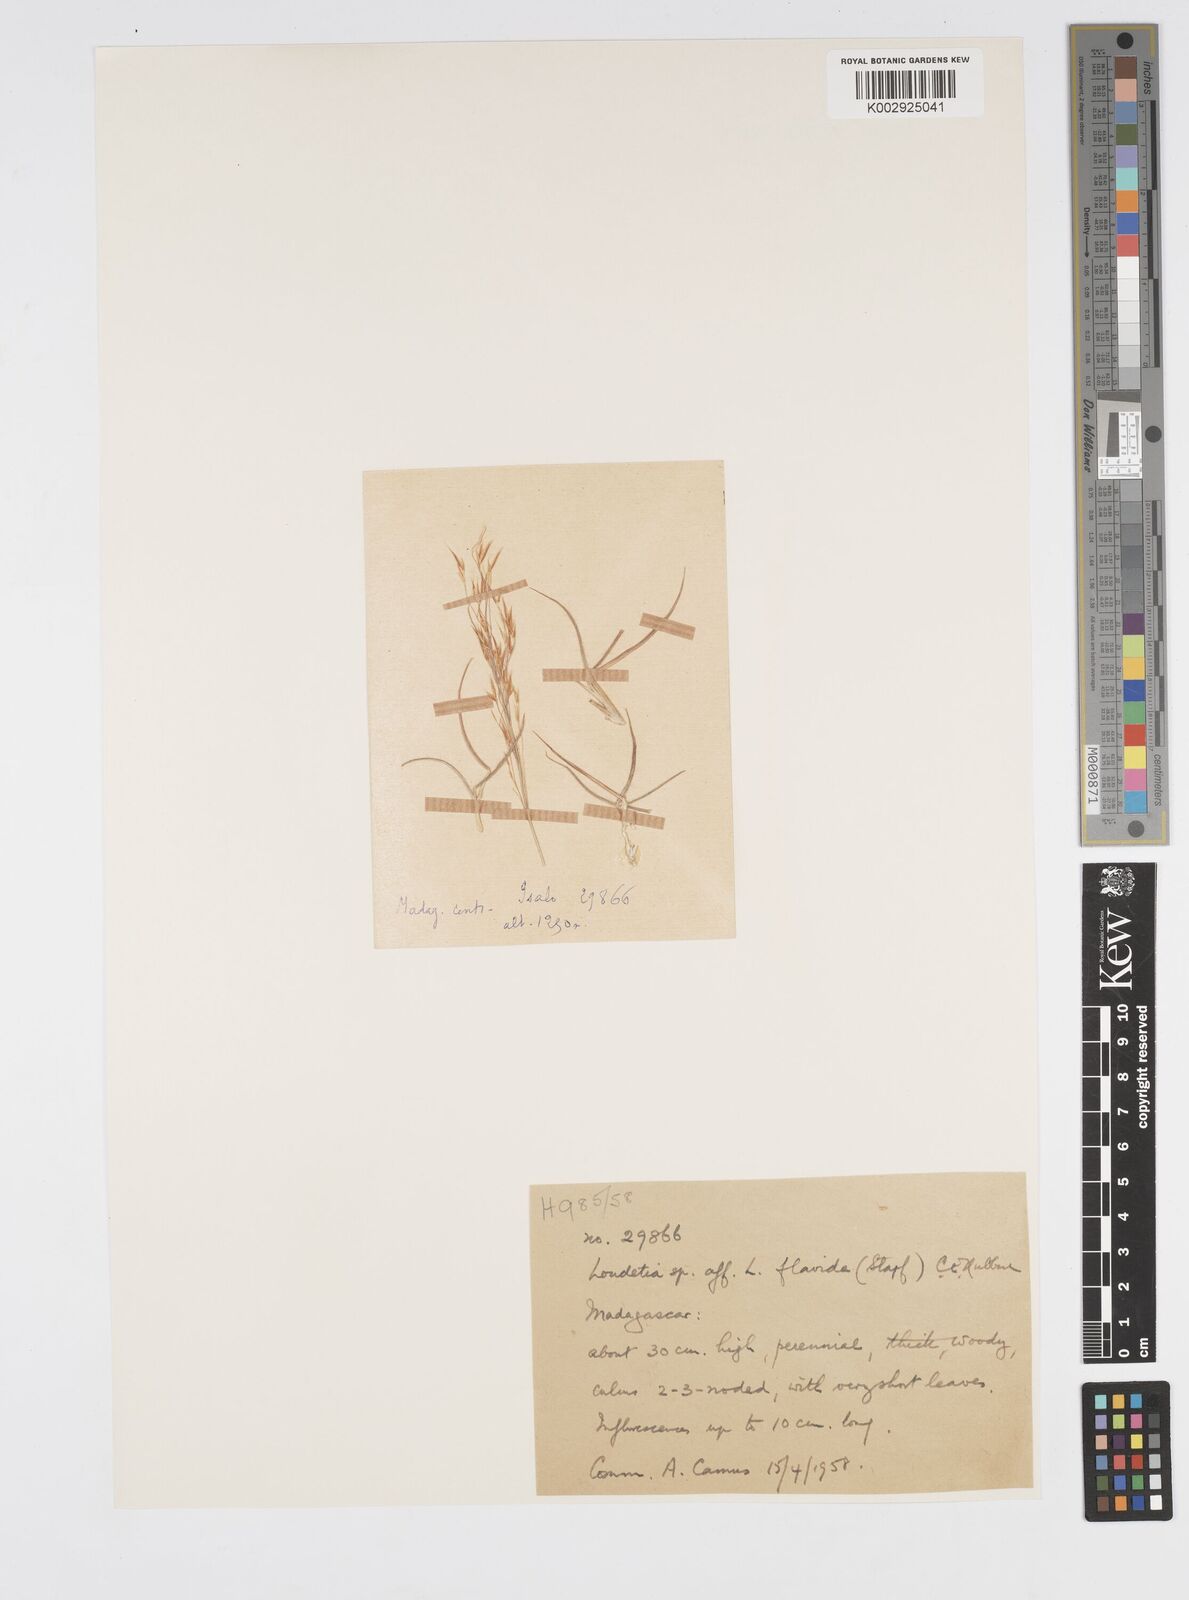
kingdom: Plantae
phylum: Tracheophyta
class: Liliopsida
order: Poales
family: Poaceae
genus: Loudetia
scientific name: Loudetia flavida
